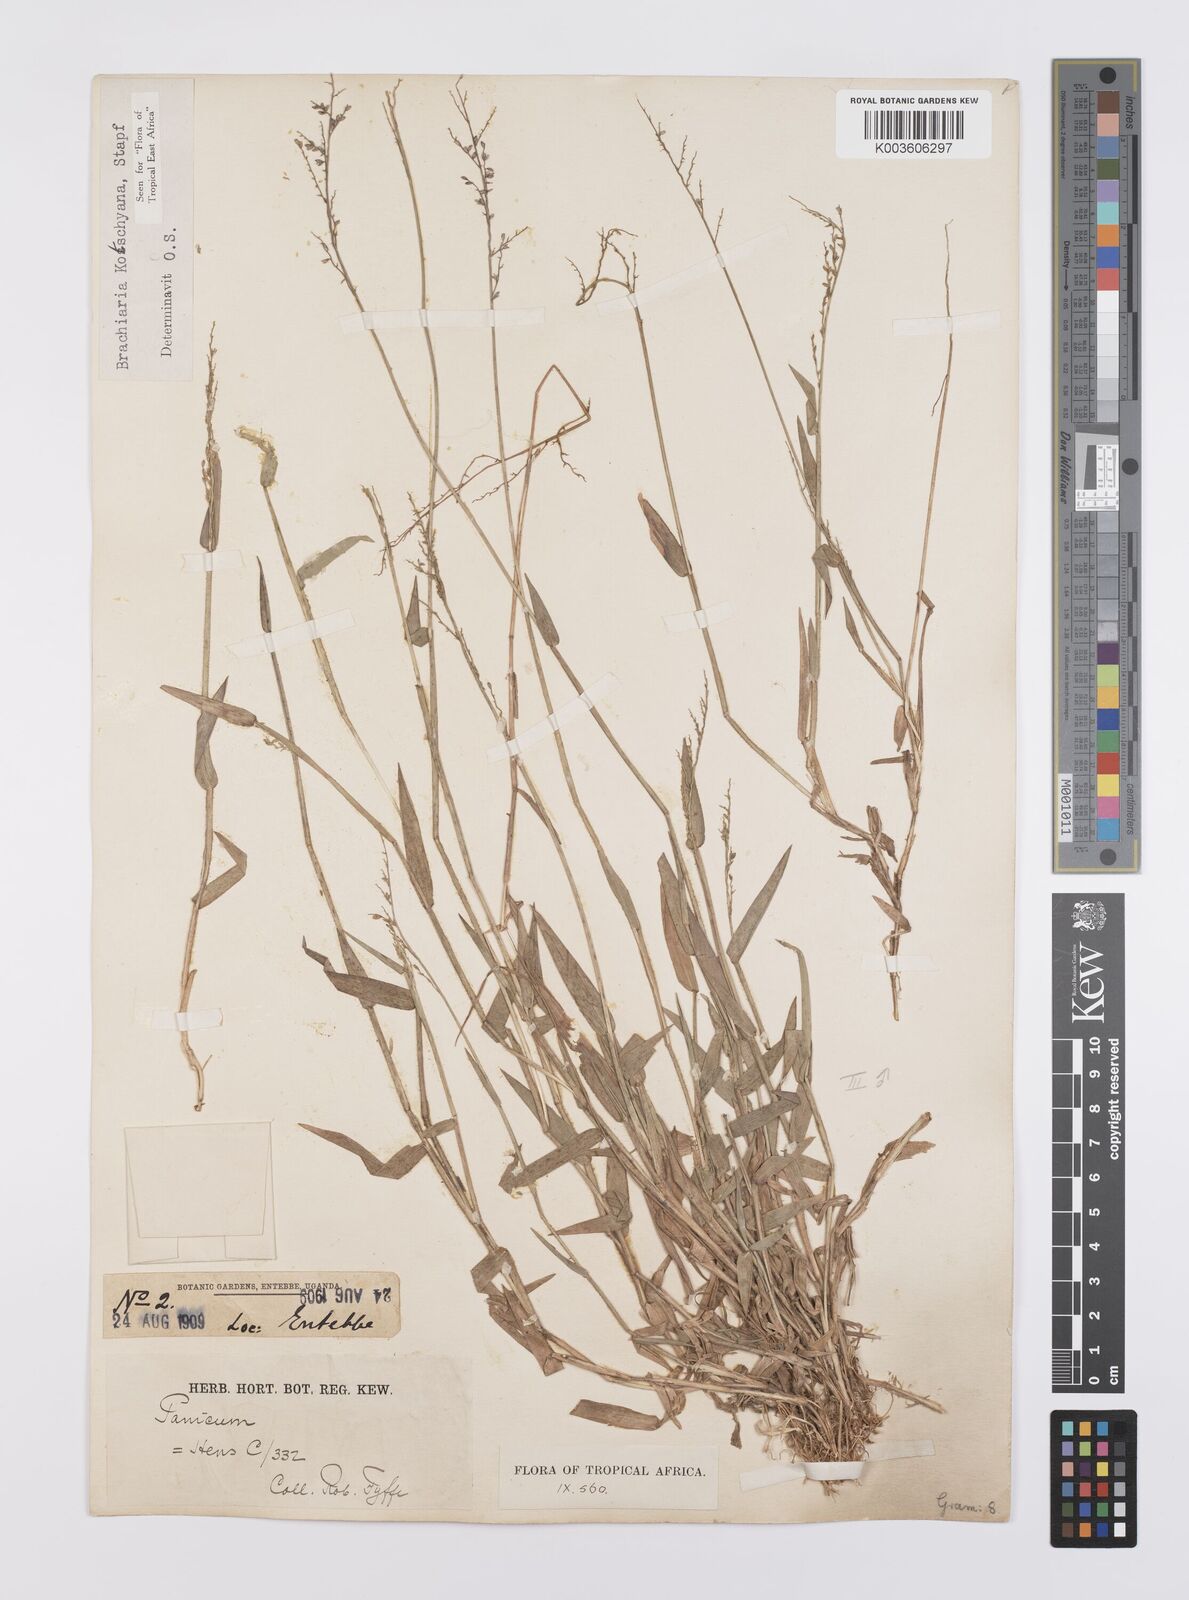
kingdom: Plantae
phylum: Tracheophyta
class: Liliopsida
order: Poales
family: Poaceae
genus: Urochloa
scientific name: Urochloa comata
